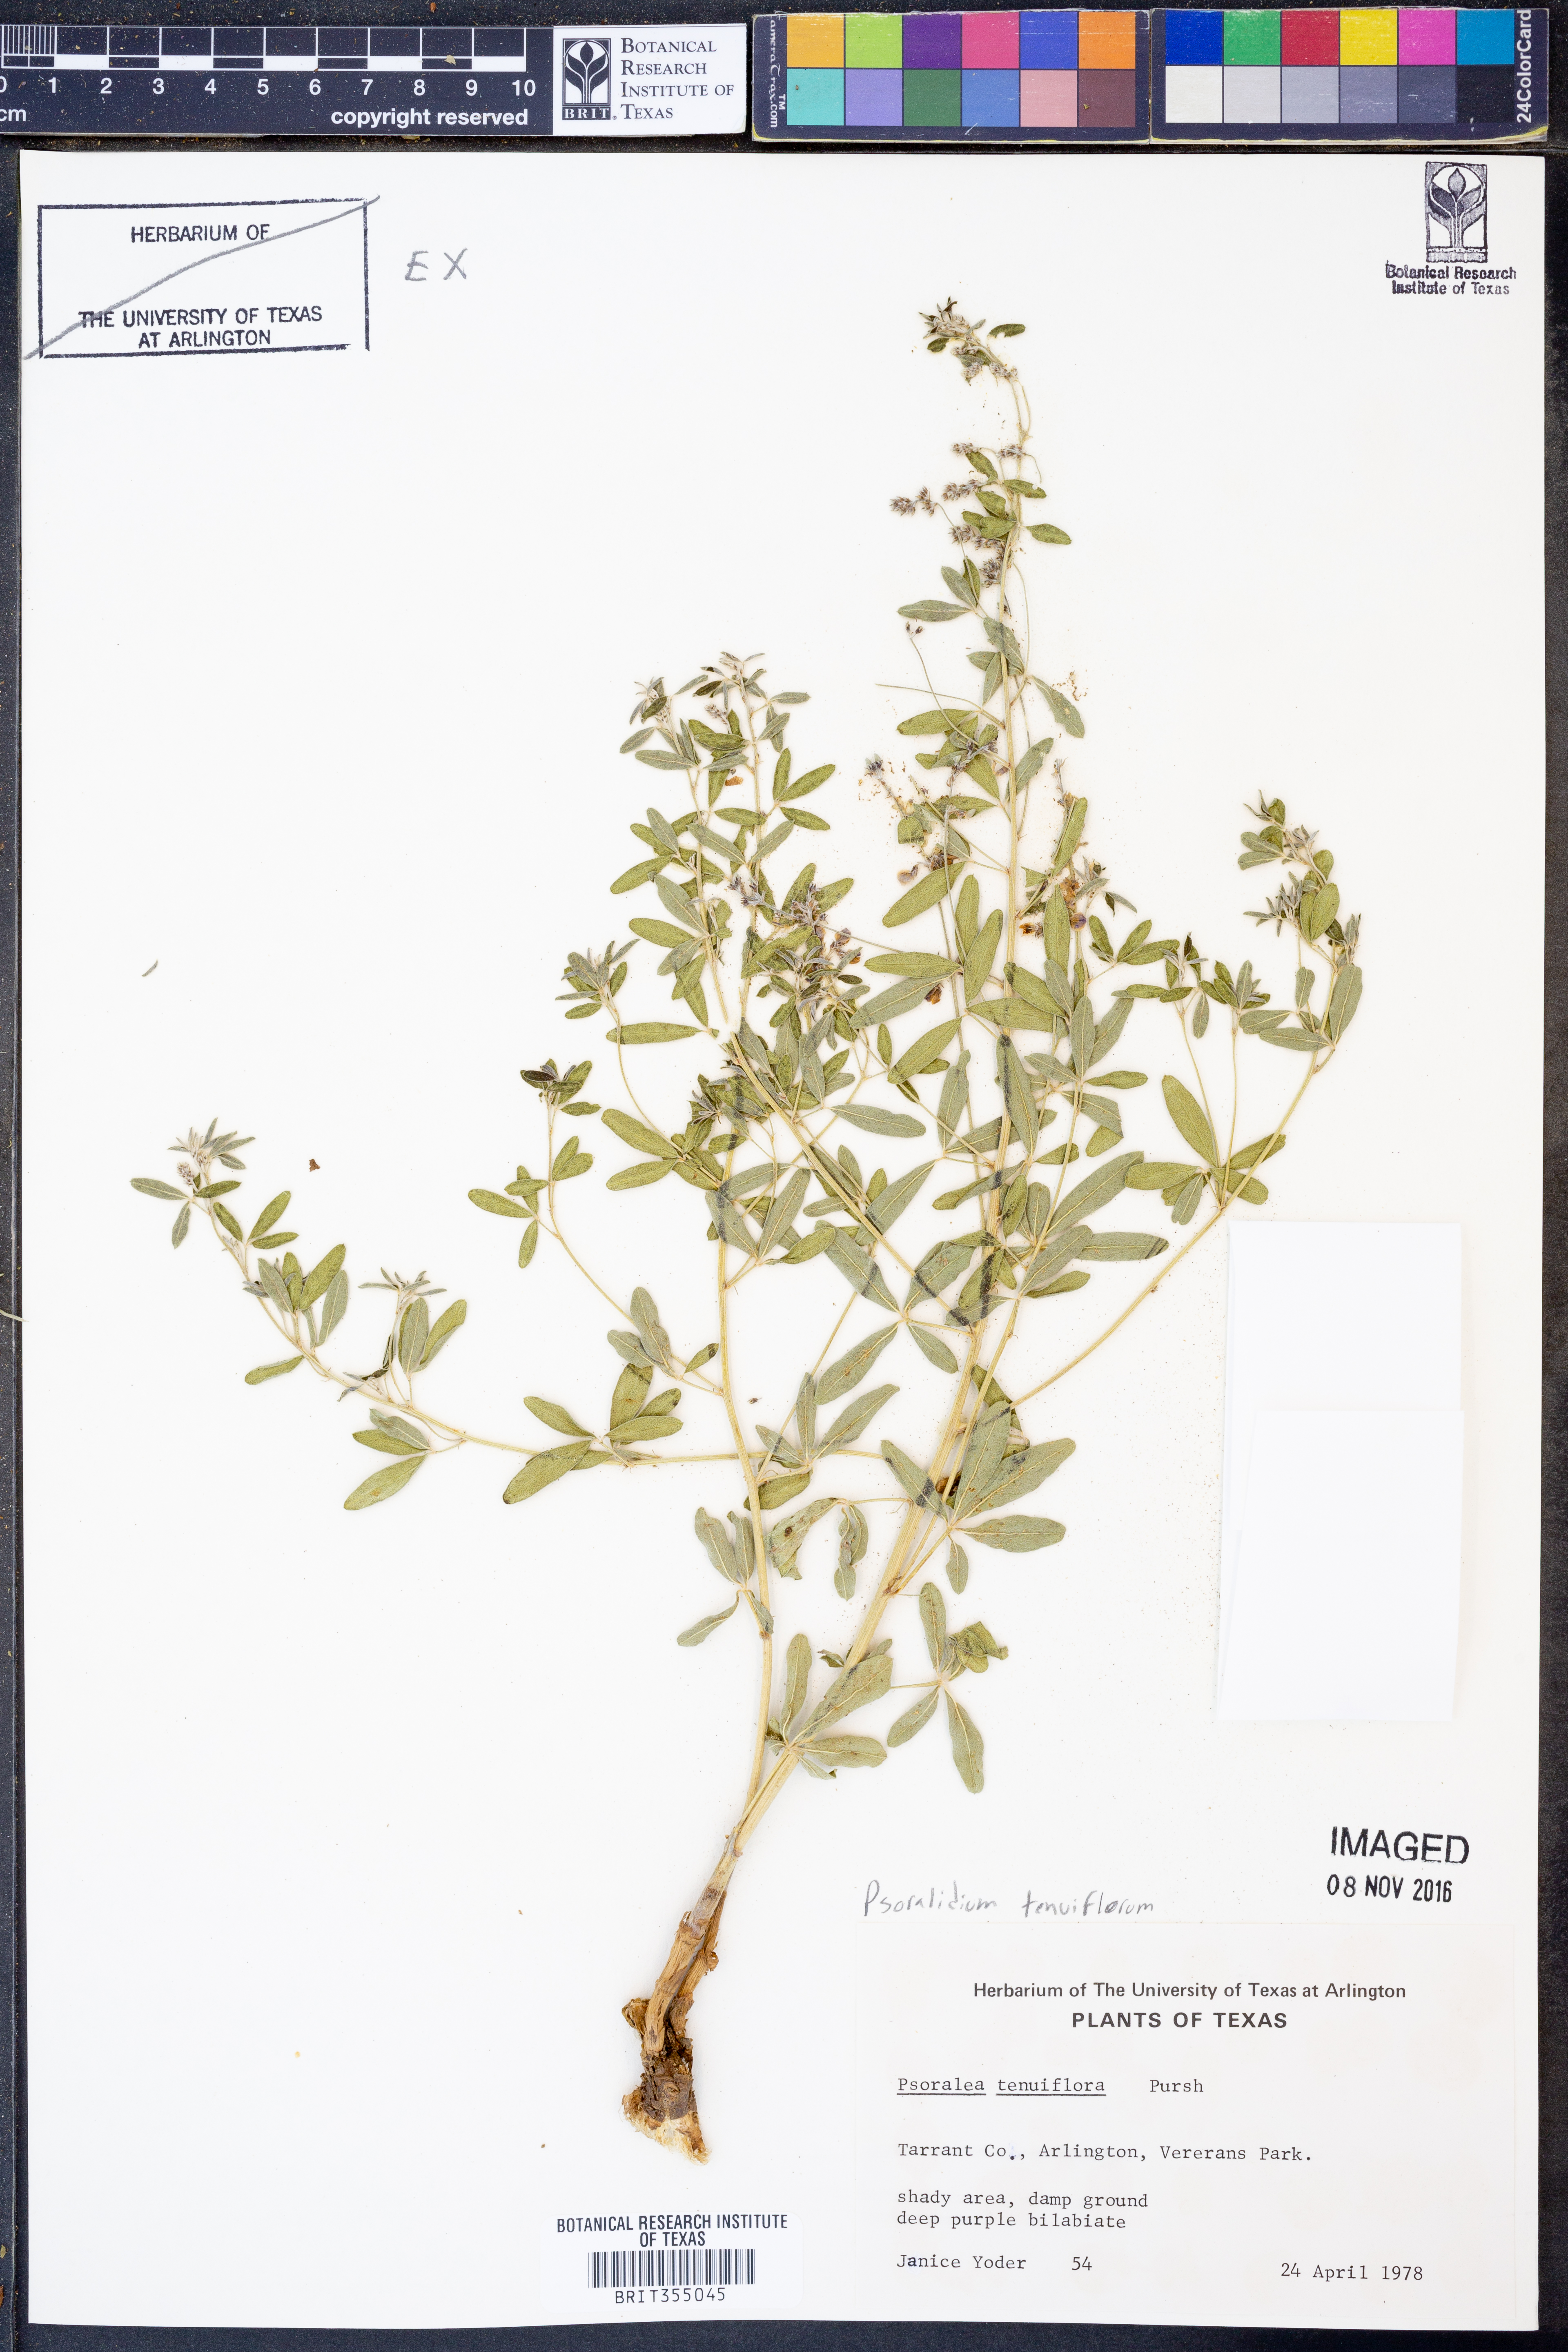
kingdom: Plantae
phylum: Tracheophyta
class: Magnoliopsida
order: Fabales
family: Fabaceae
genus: Pediomelum
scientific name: Pediomelum tenuiflorum
